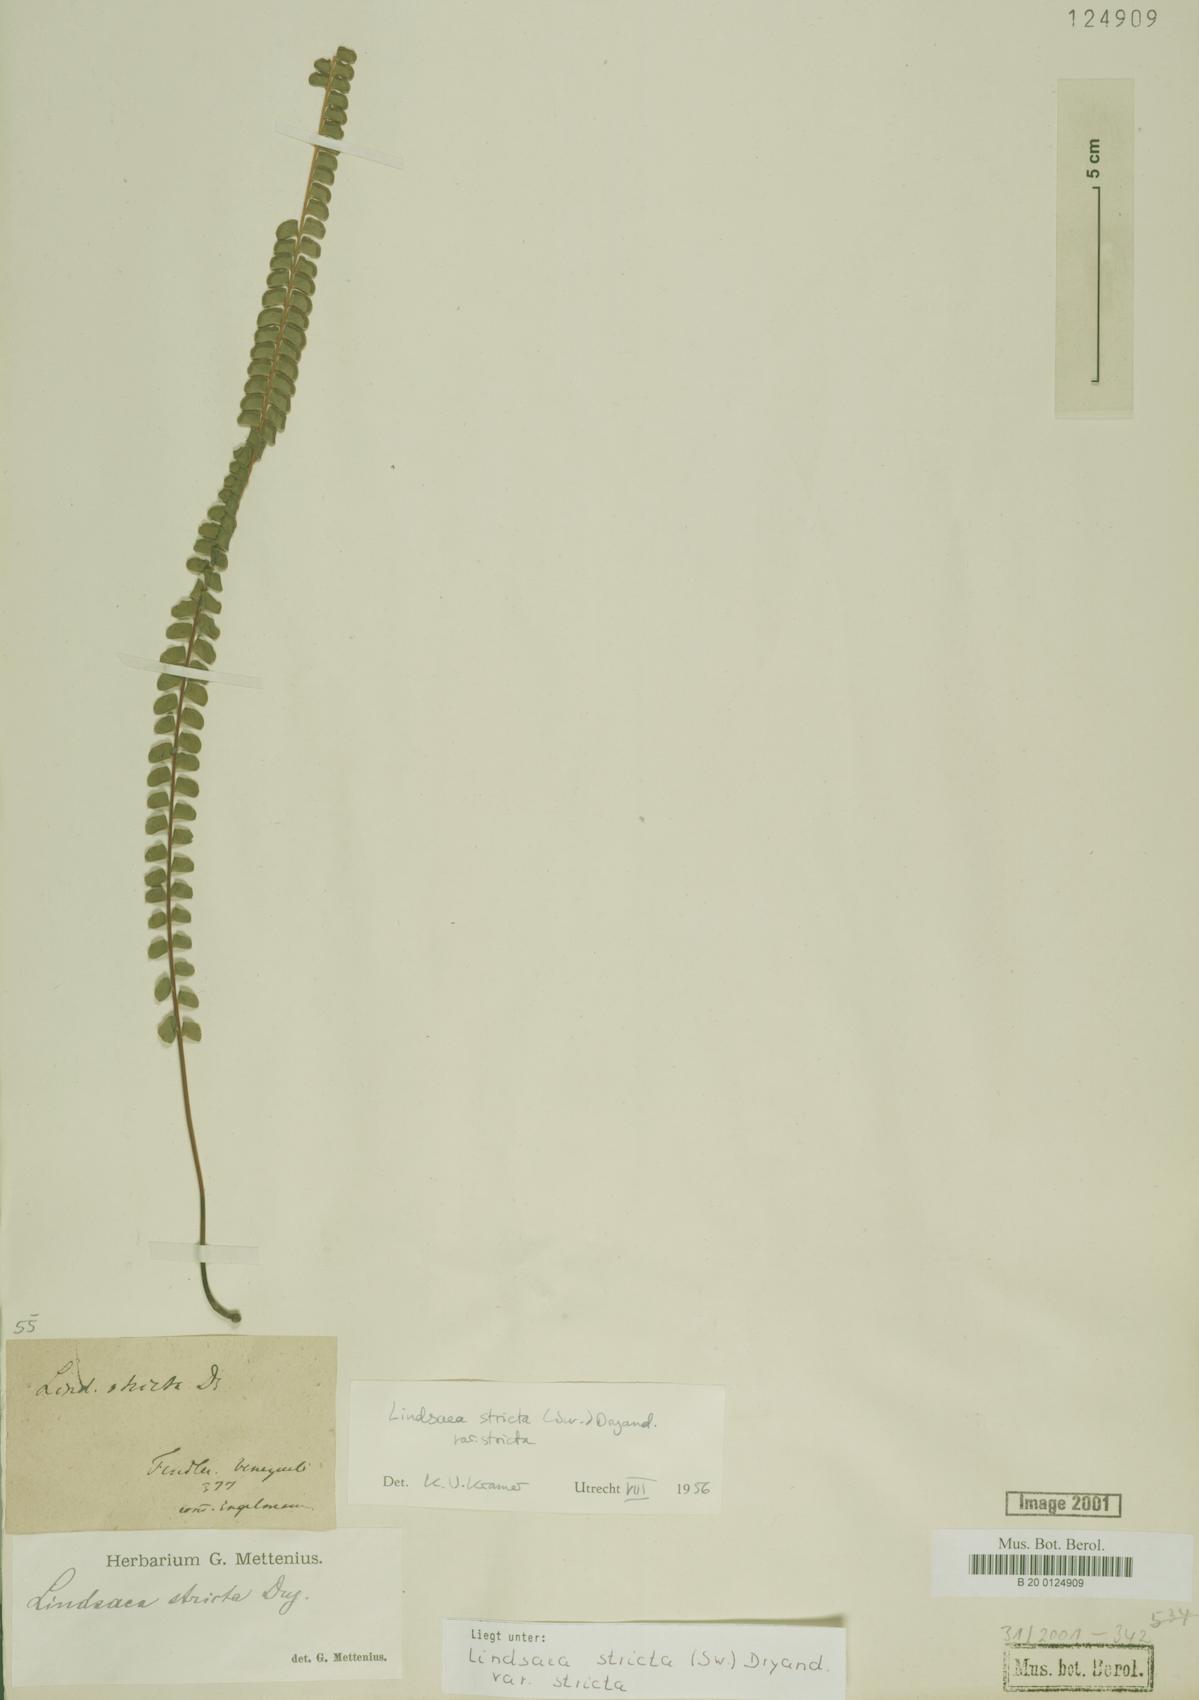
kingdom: Plantae
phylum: Tracheophyta
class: Polypodiopsida
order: Polypodiales
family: Lindsaeaceae
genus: Lindsaea
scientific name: Lindsaea stricta
